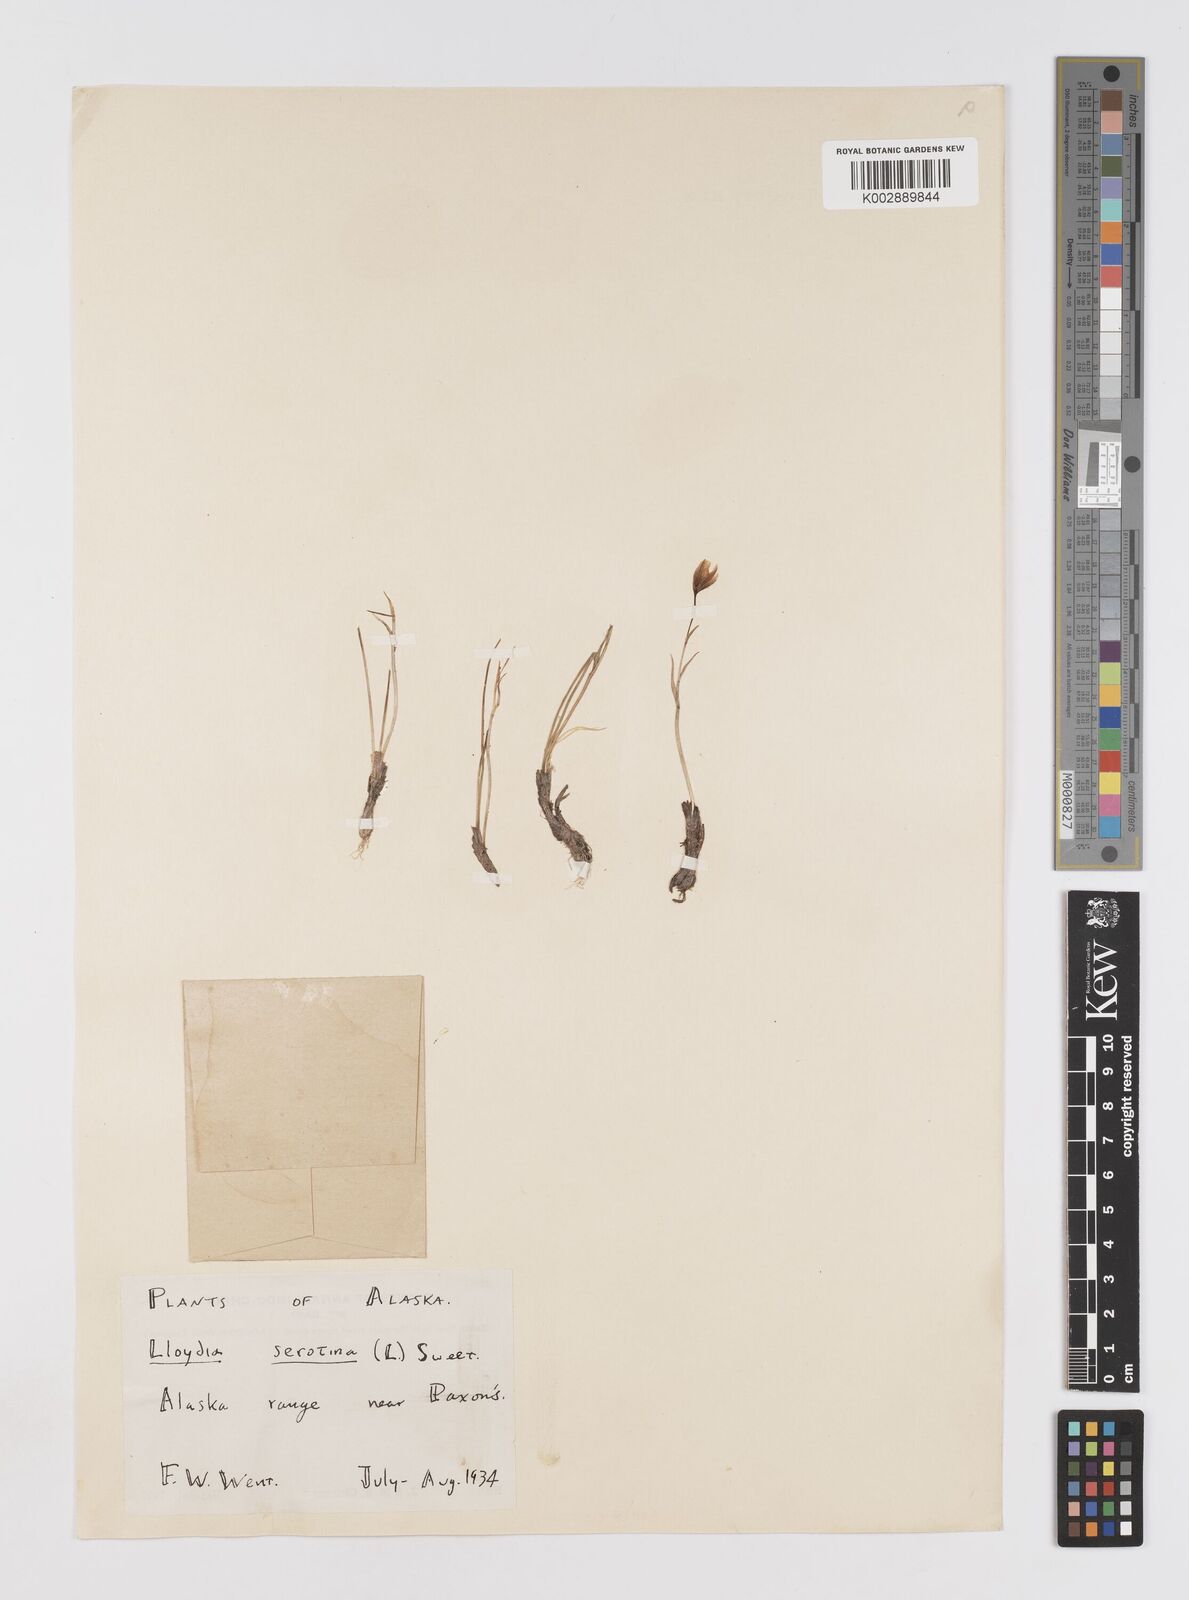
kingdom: Plantae
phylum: Tracheophyta
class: Liliopsida
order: Liliales
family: Liliaceae
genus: Gagea
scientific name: Gagea serotina
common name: Snowdon lily
